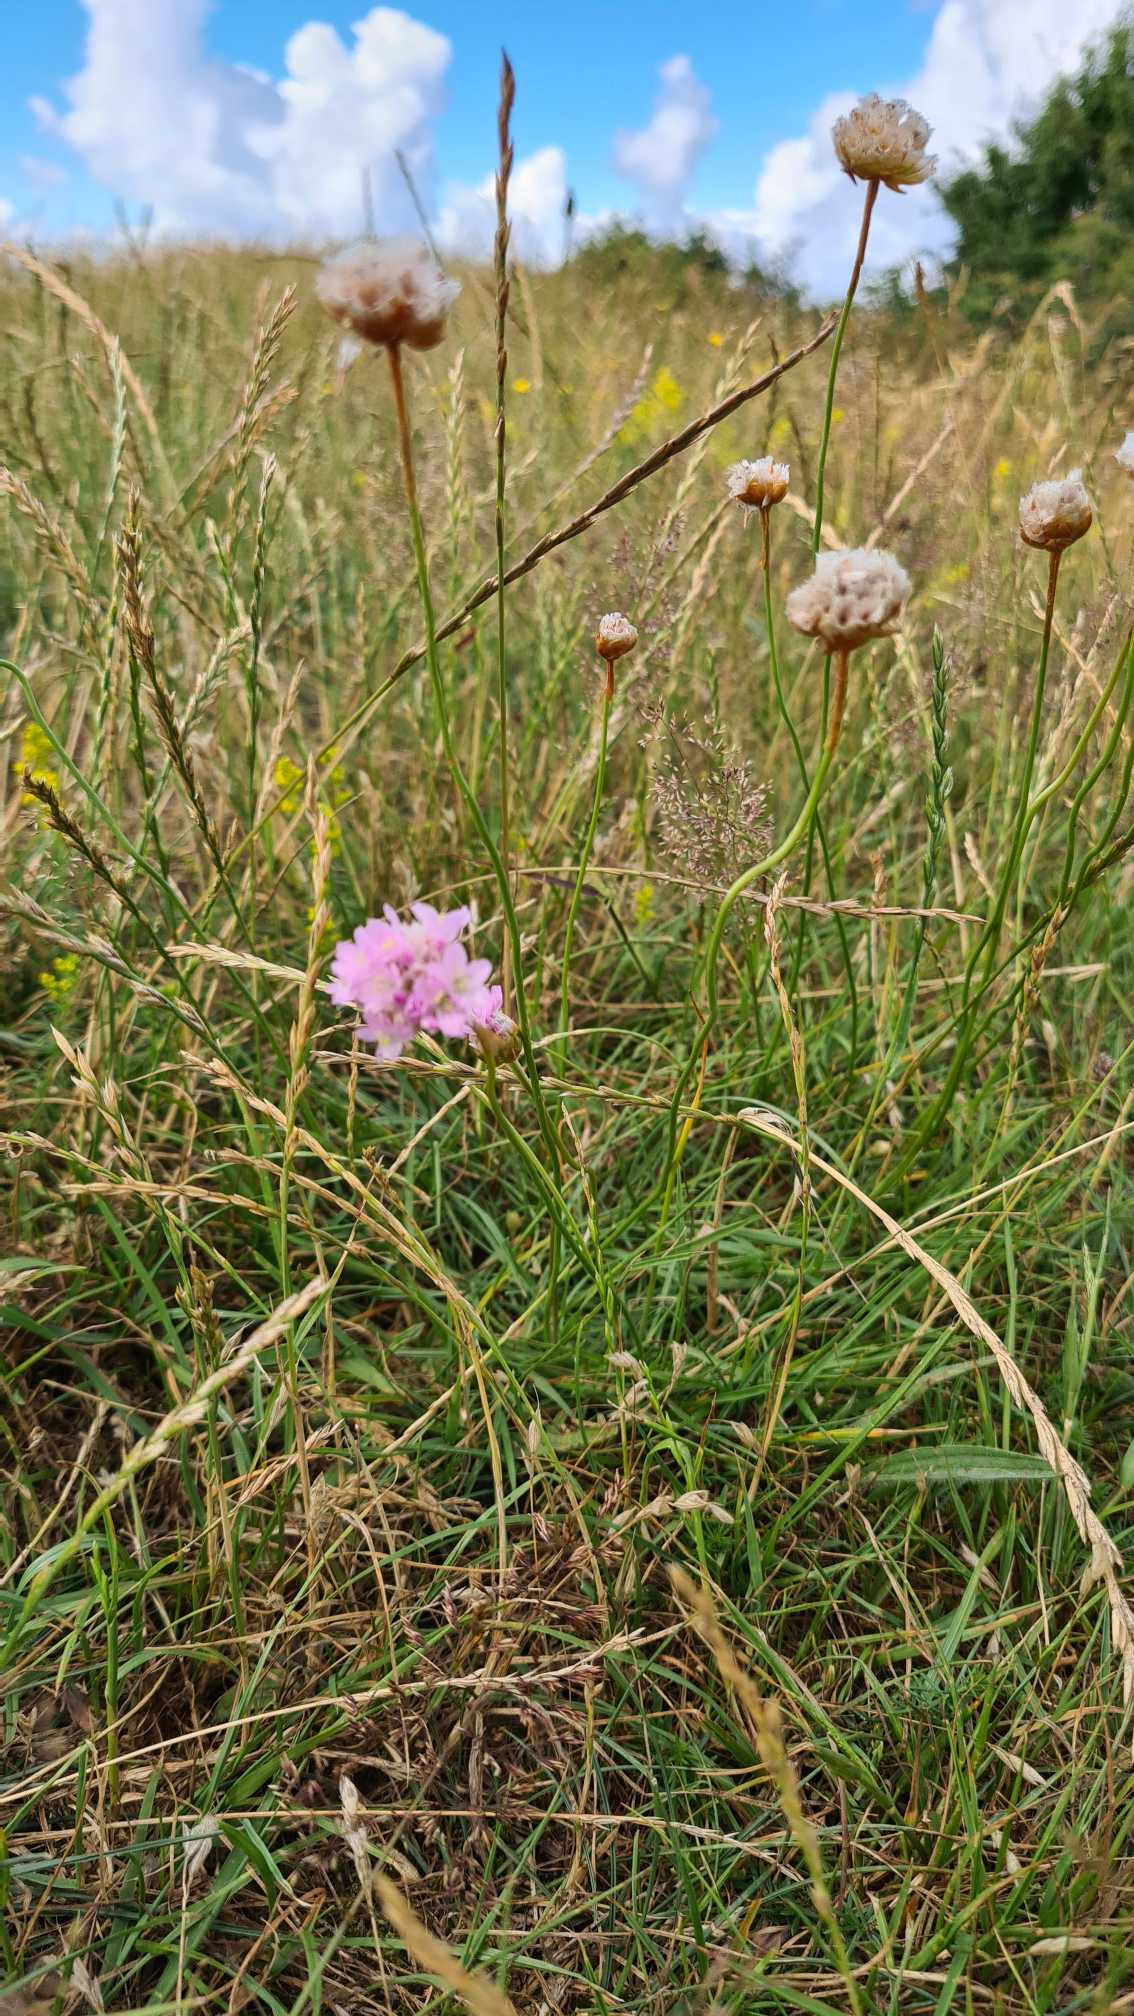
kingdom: Plantae
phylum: Tracheophyta
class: Magnoliopsida
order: Caryophyllales
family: Plumbaginaceae
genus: Armeria
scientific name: Armeria maritima
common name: Engelskgræs
